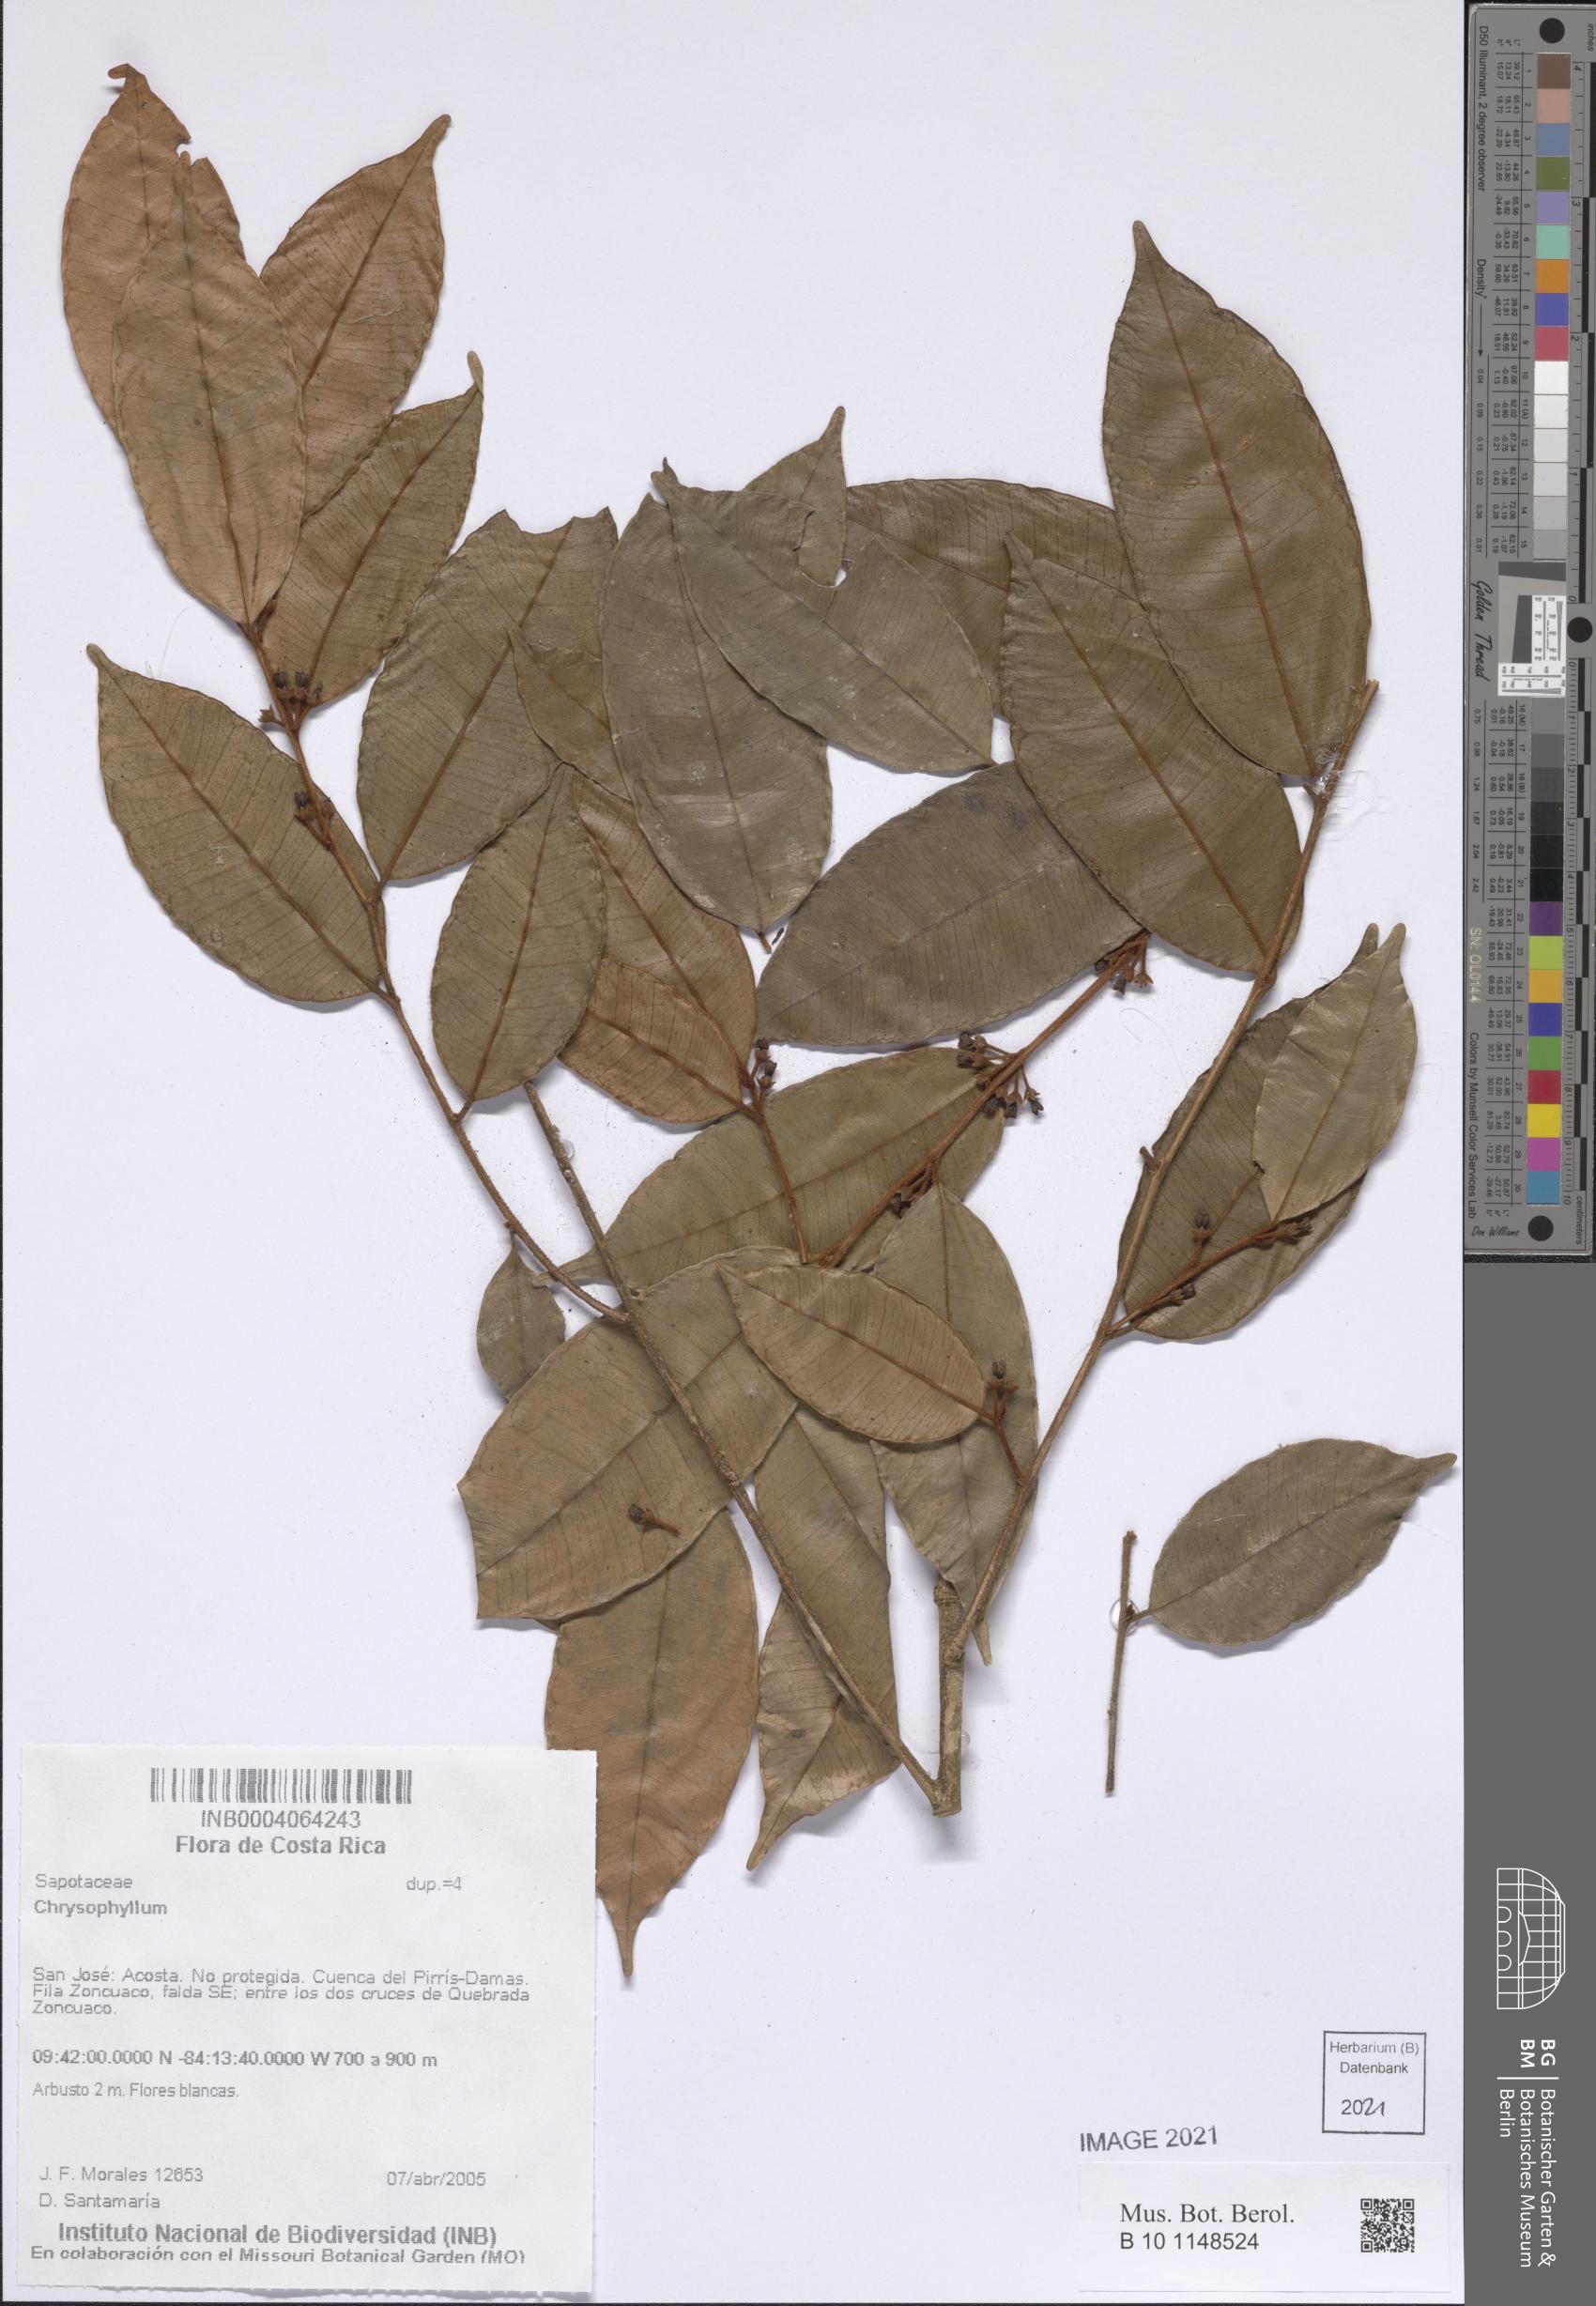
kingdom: Plantae
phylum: Tracheophyta
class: Magnoliopsida
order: Ericales
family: Sapotaceae
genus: Chrysophyllum
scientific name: Chrysophyllum
